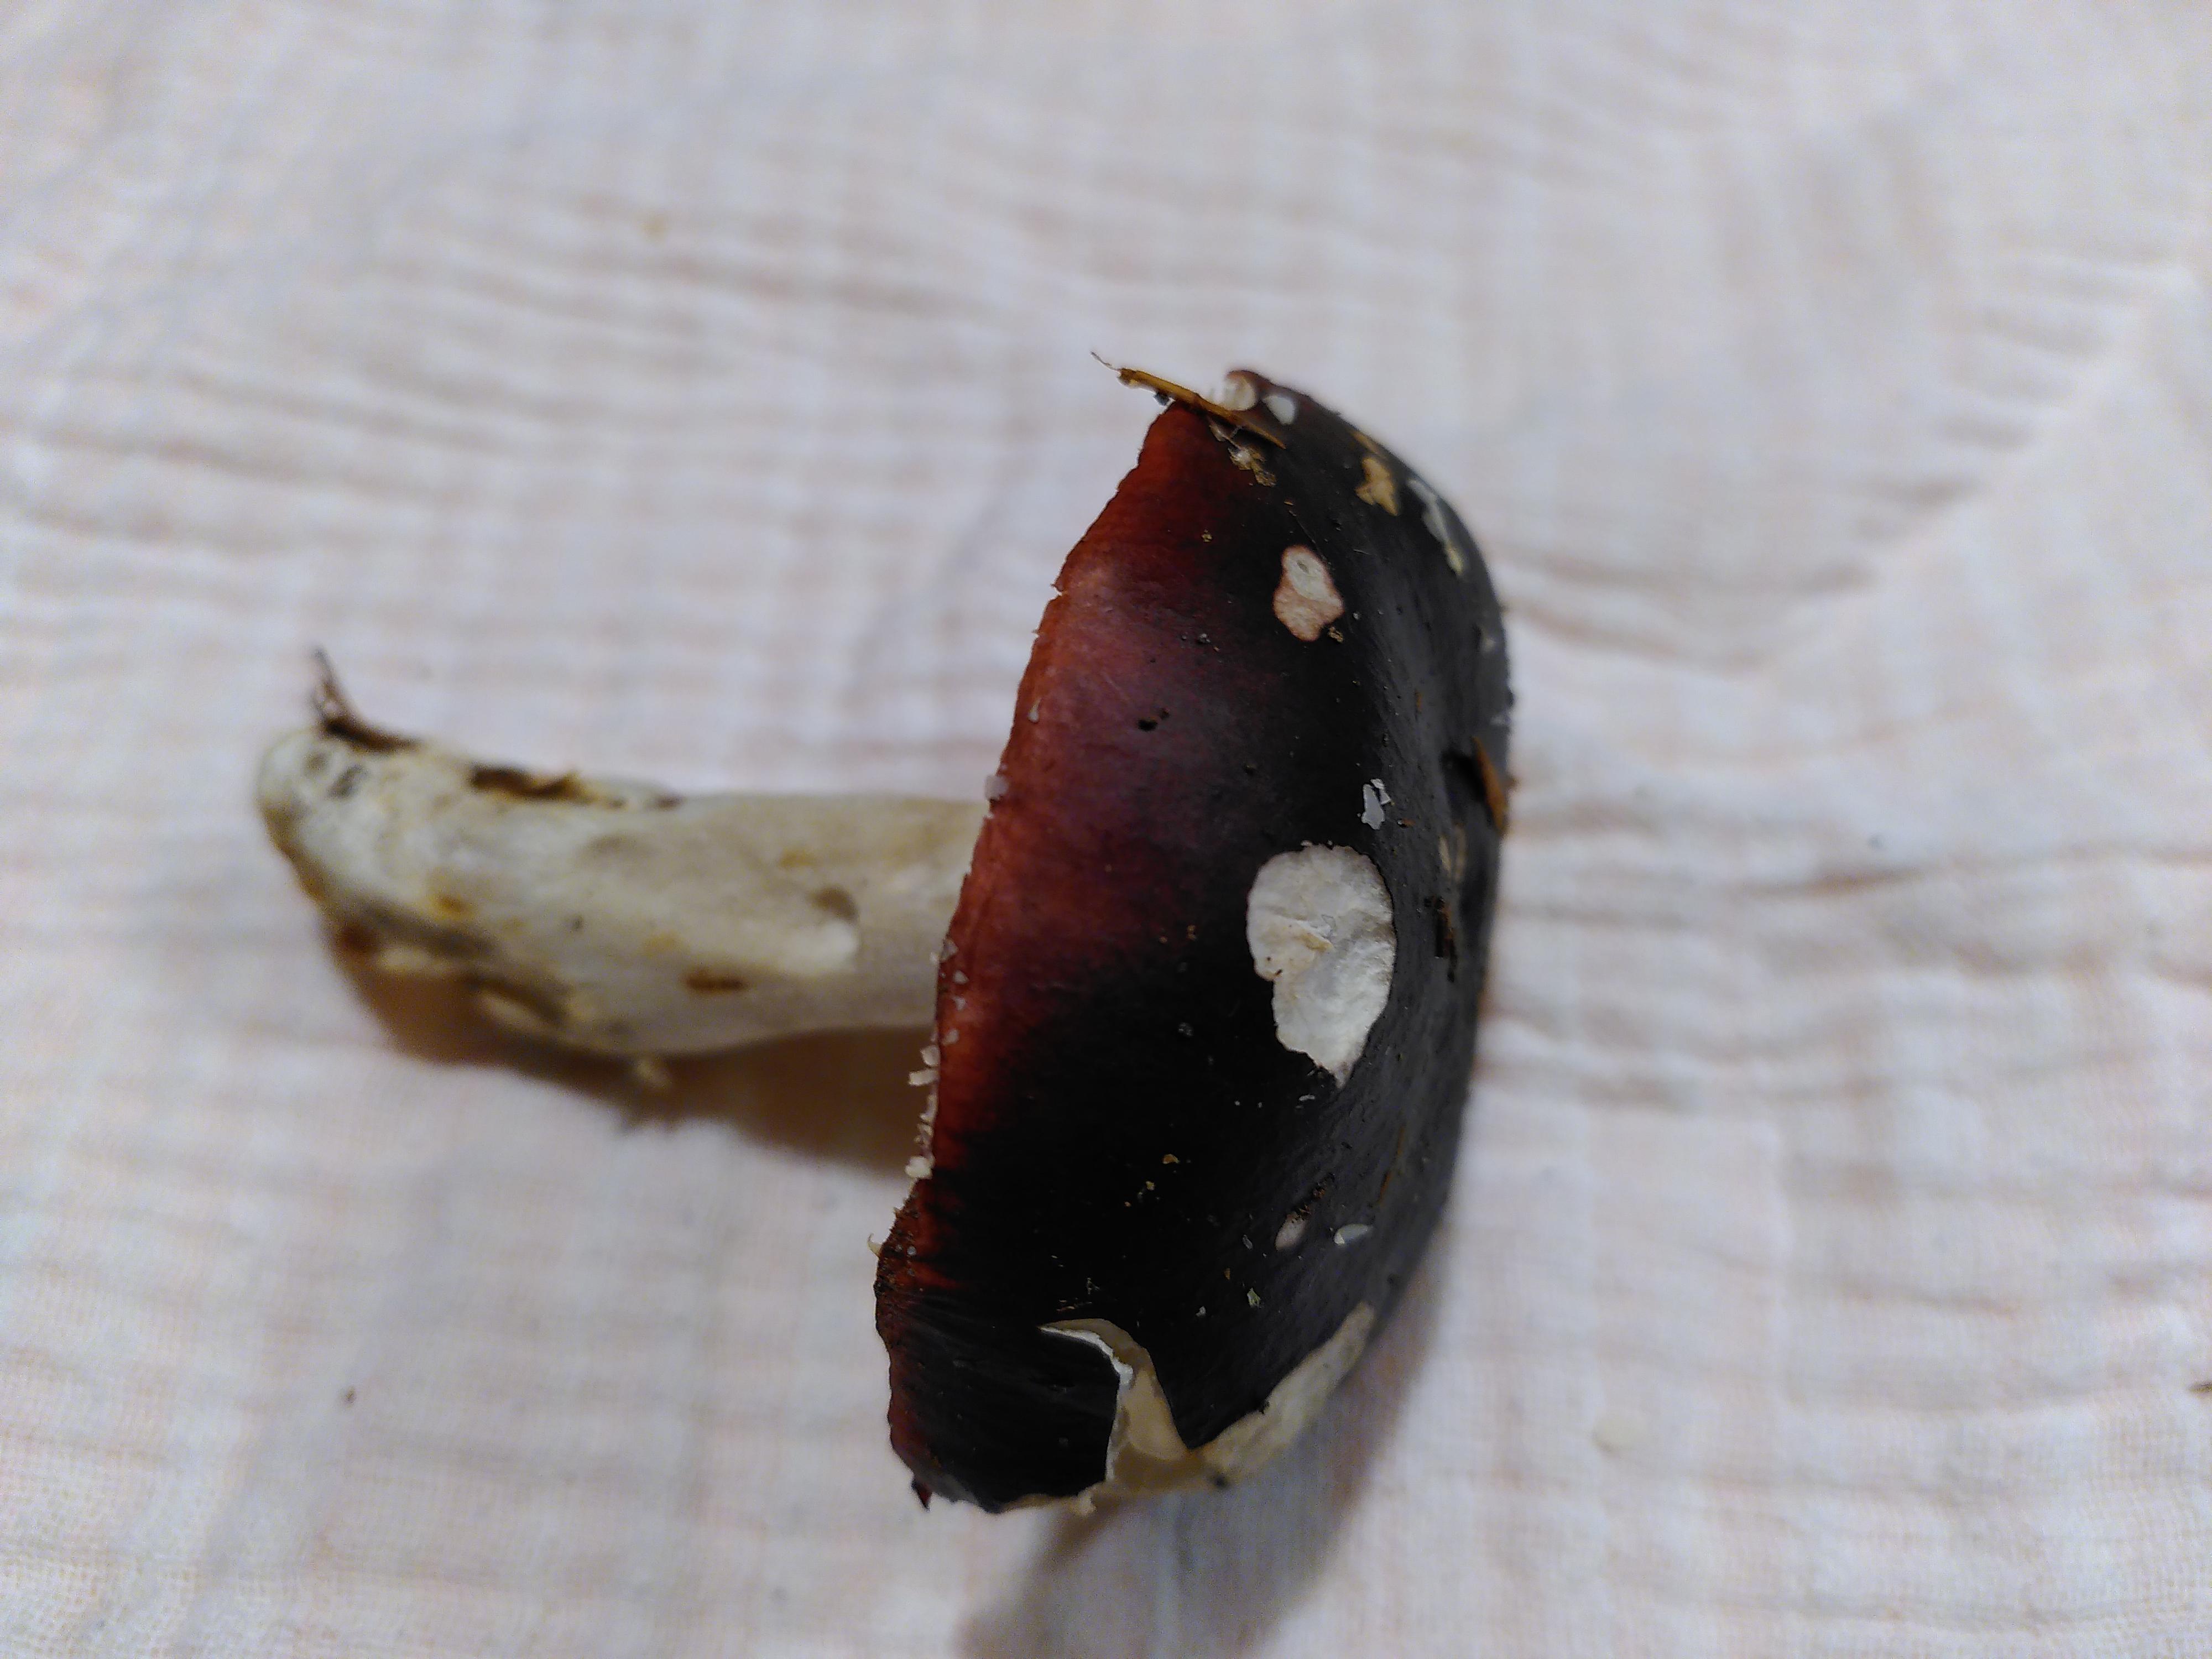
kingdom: Fungi
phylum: Basidiomycota
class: Agaricomycetes
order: Russulales
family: Russulaceae
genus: Russula
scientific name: Russula
